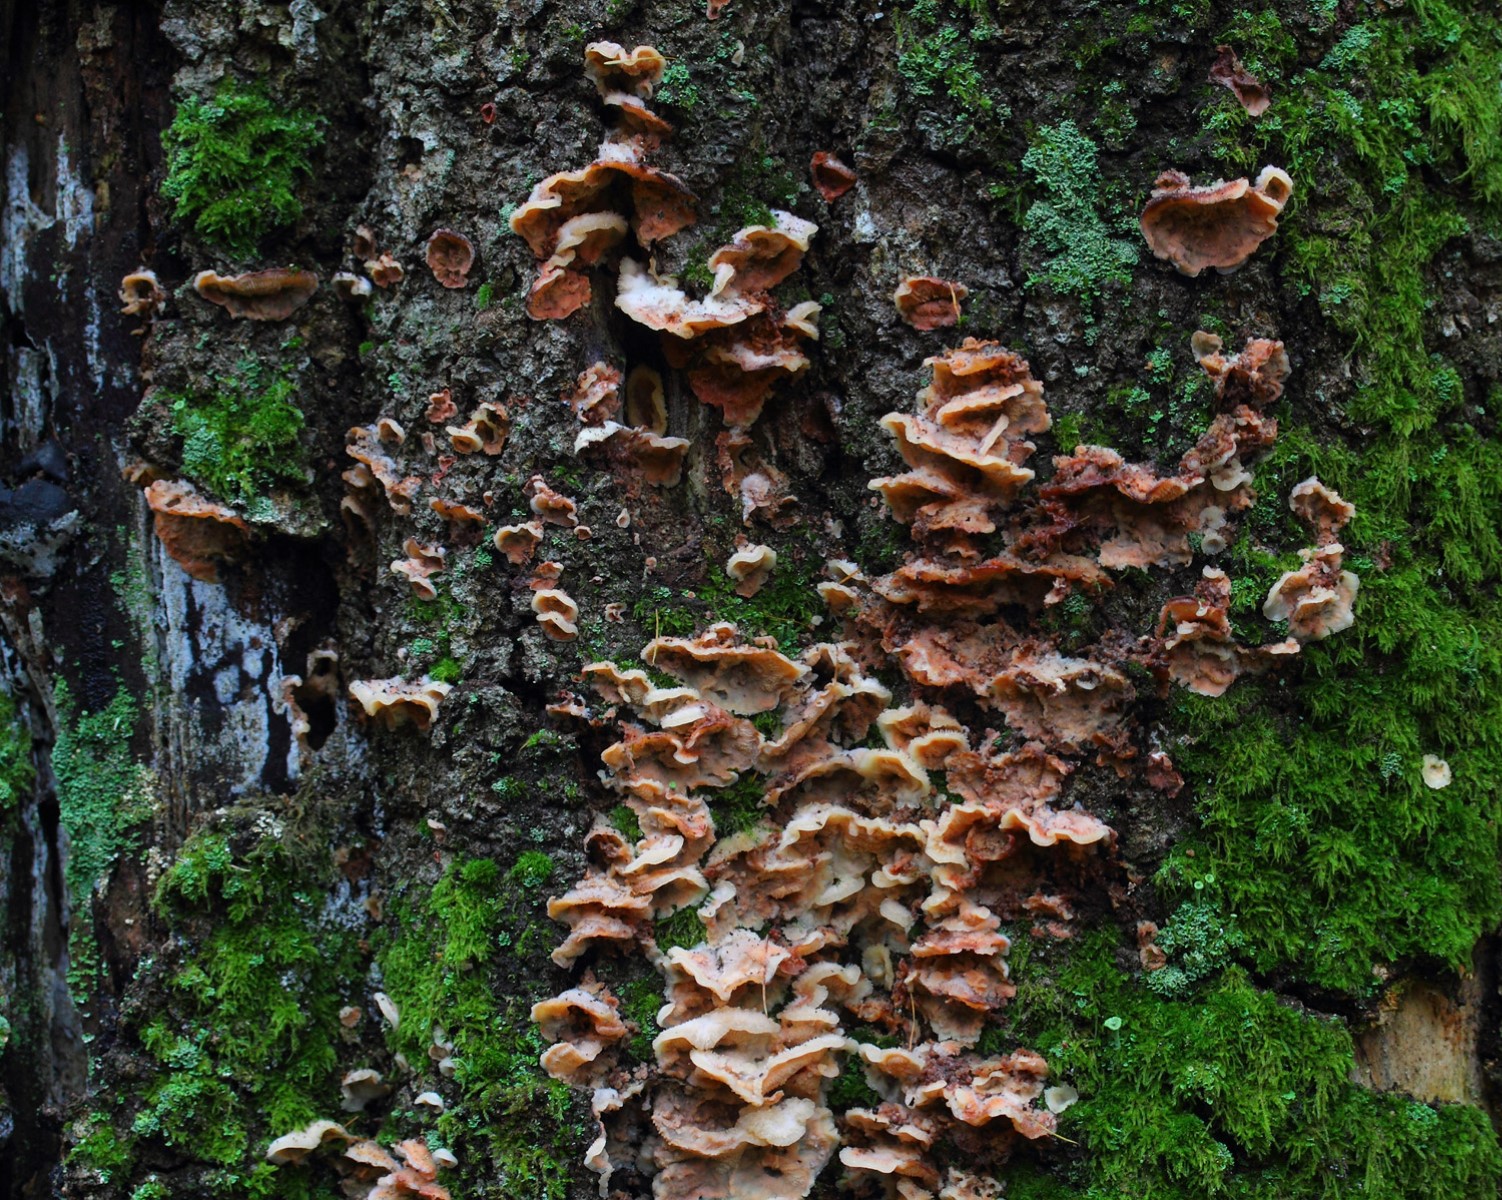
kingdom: Fungi
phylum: Basidiomycota
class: Agaricomycetes
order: Polyporales
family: Meruliaceae
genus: Phlebia
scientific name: Phlebia tremellosa
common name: bævrende åresvamp
